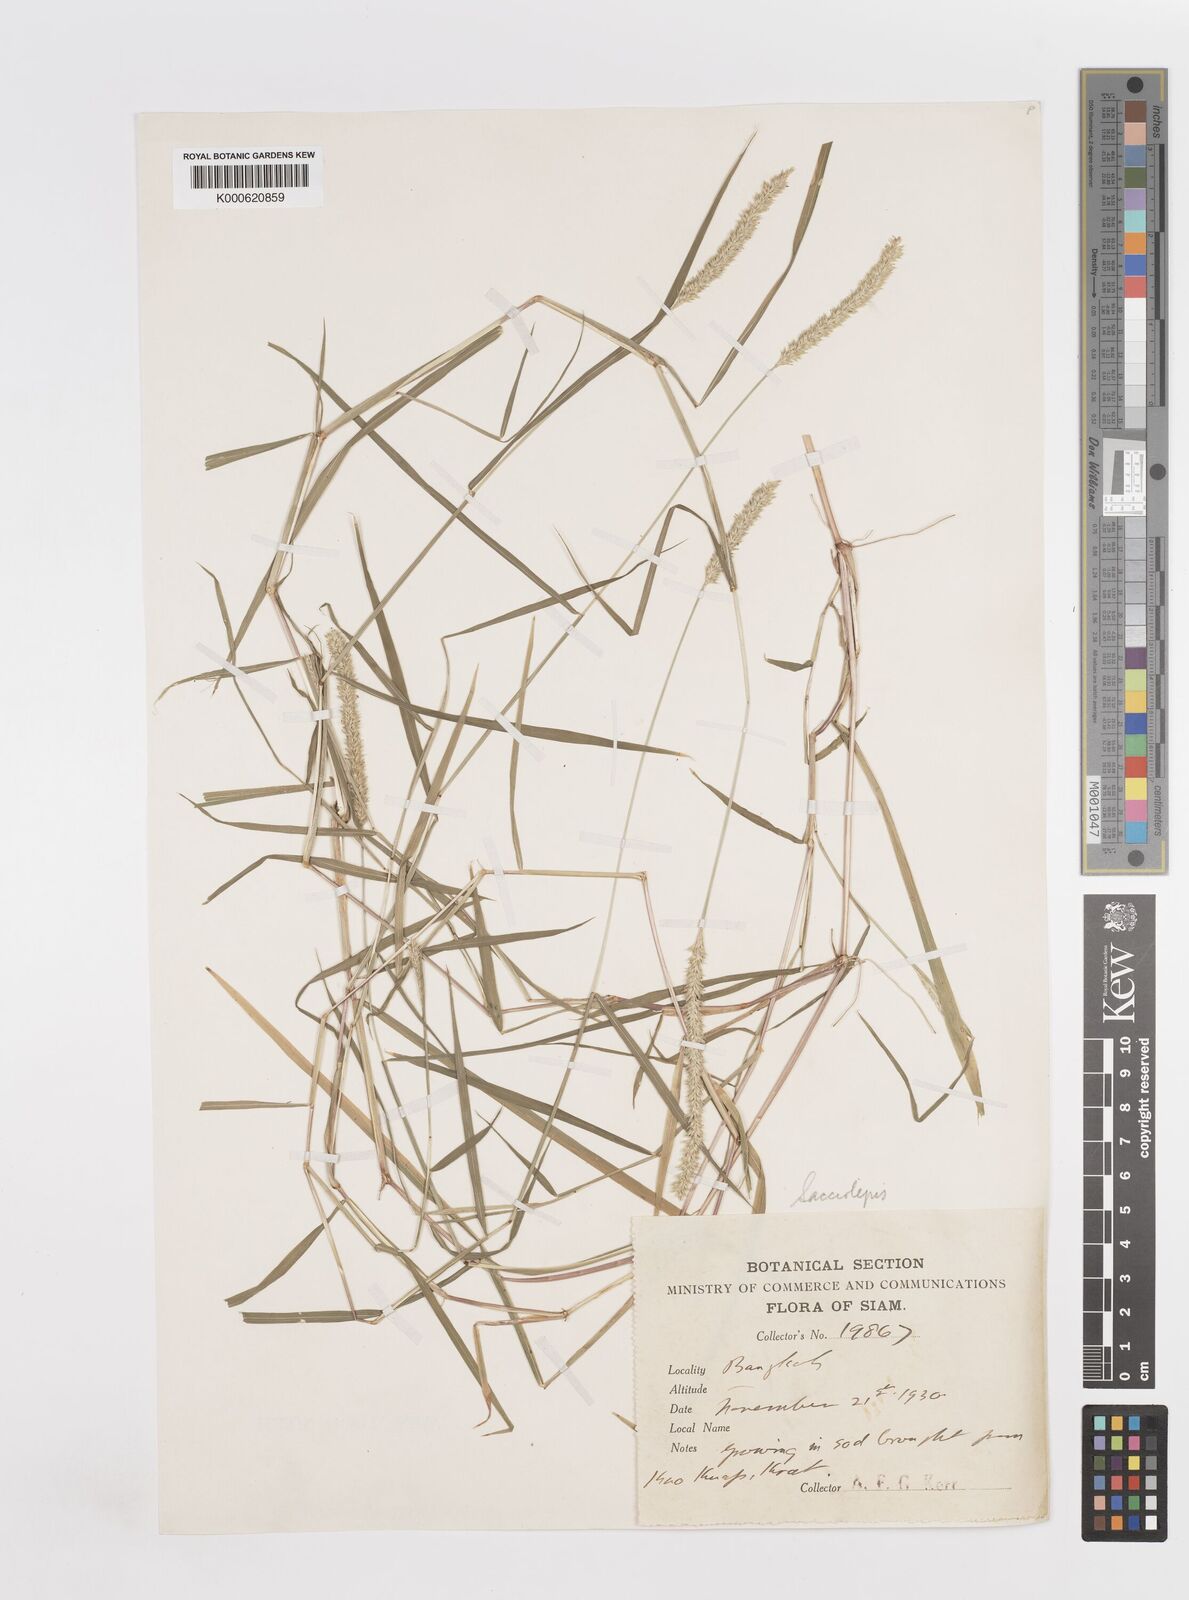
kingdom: Plantae
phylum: Tracheophyta
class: Liliopsida
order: Poales
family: Poaceae
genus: Sacciolepis
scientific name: Sacciolepis indica
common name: Glenwoodgrass
